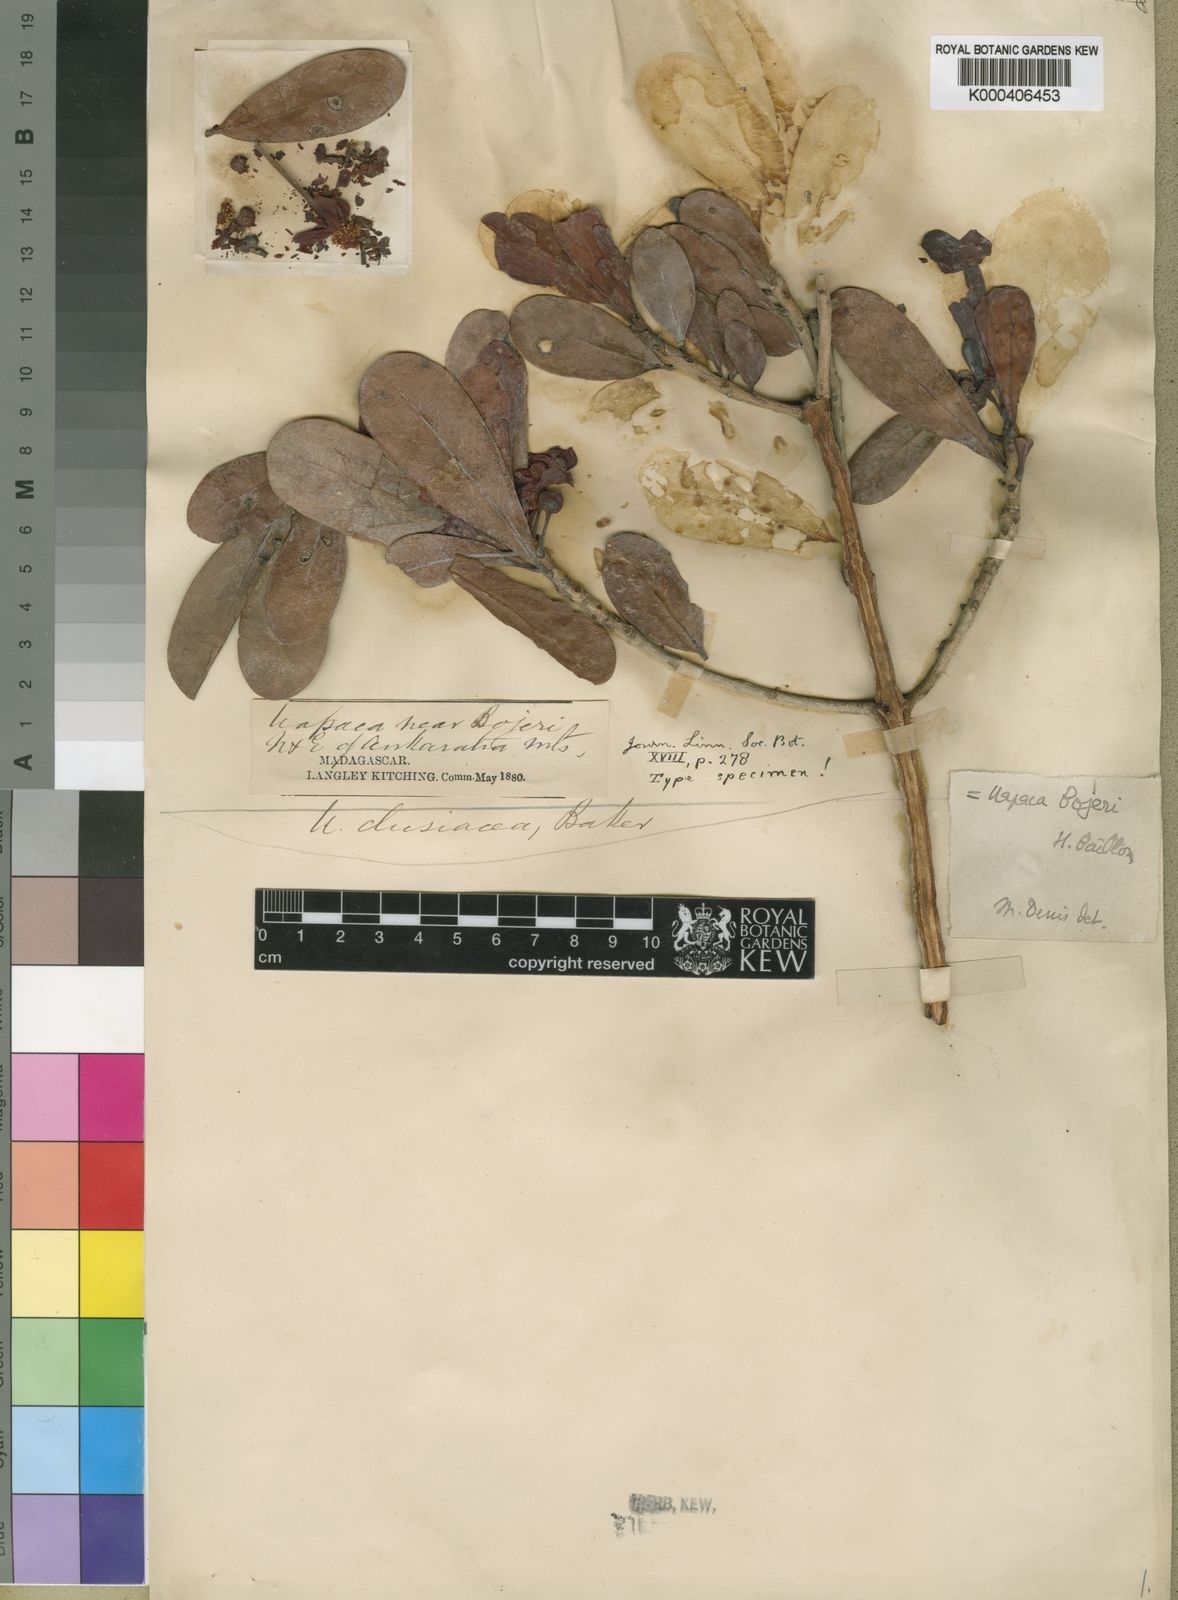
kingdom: Plantae
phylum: Tracheophyta
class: Magnoliopsida
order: Malpighiales
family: Phyllanthaceae
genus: Uapaca
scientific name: Uapaca bojeri
